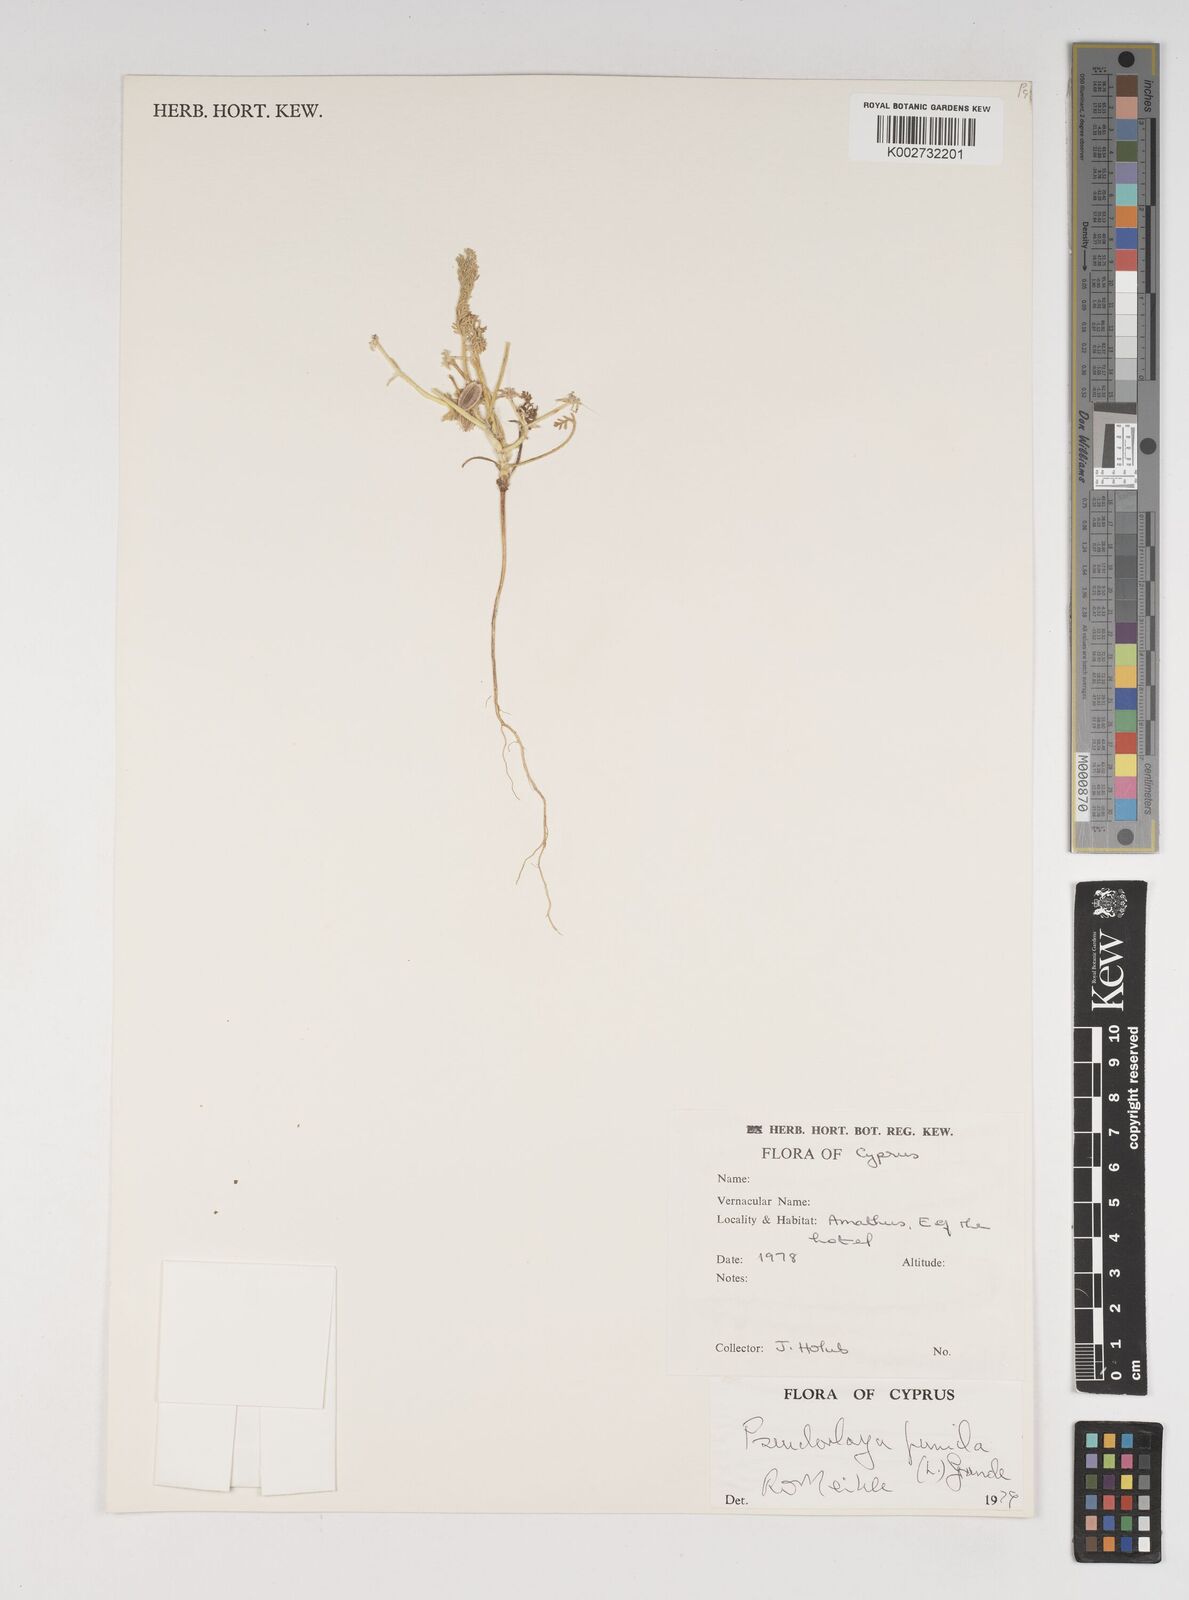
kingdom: Plantae
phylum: Tracheophyta
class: Magnoliopsida
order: Apiales
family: Apiaceae
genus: Daucus
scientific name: Daucus pumilus
